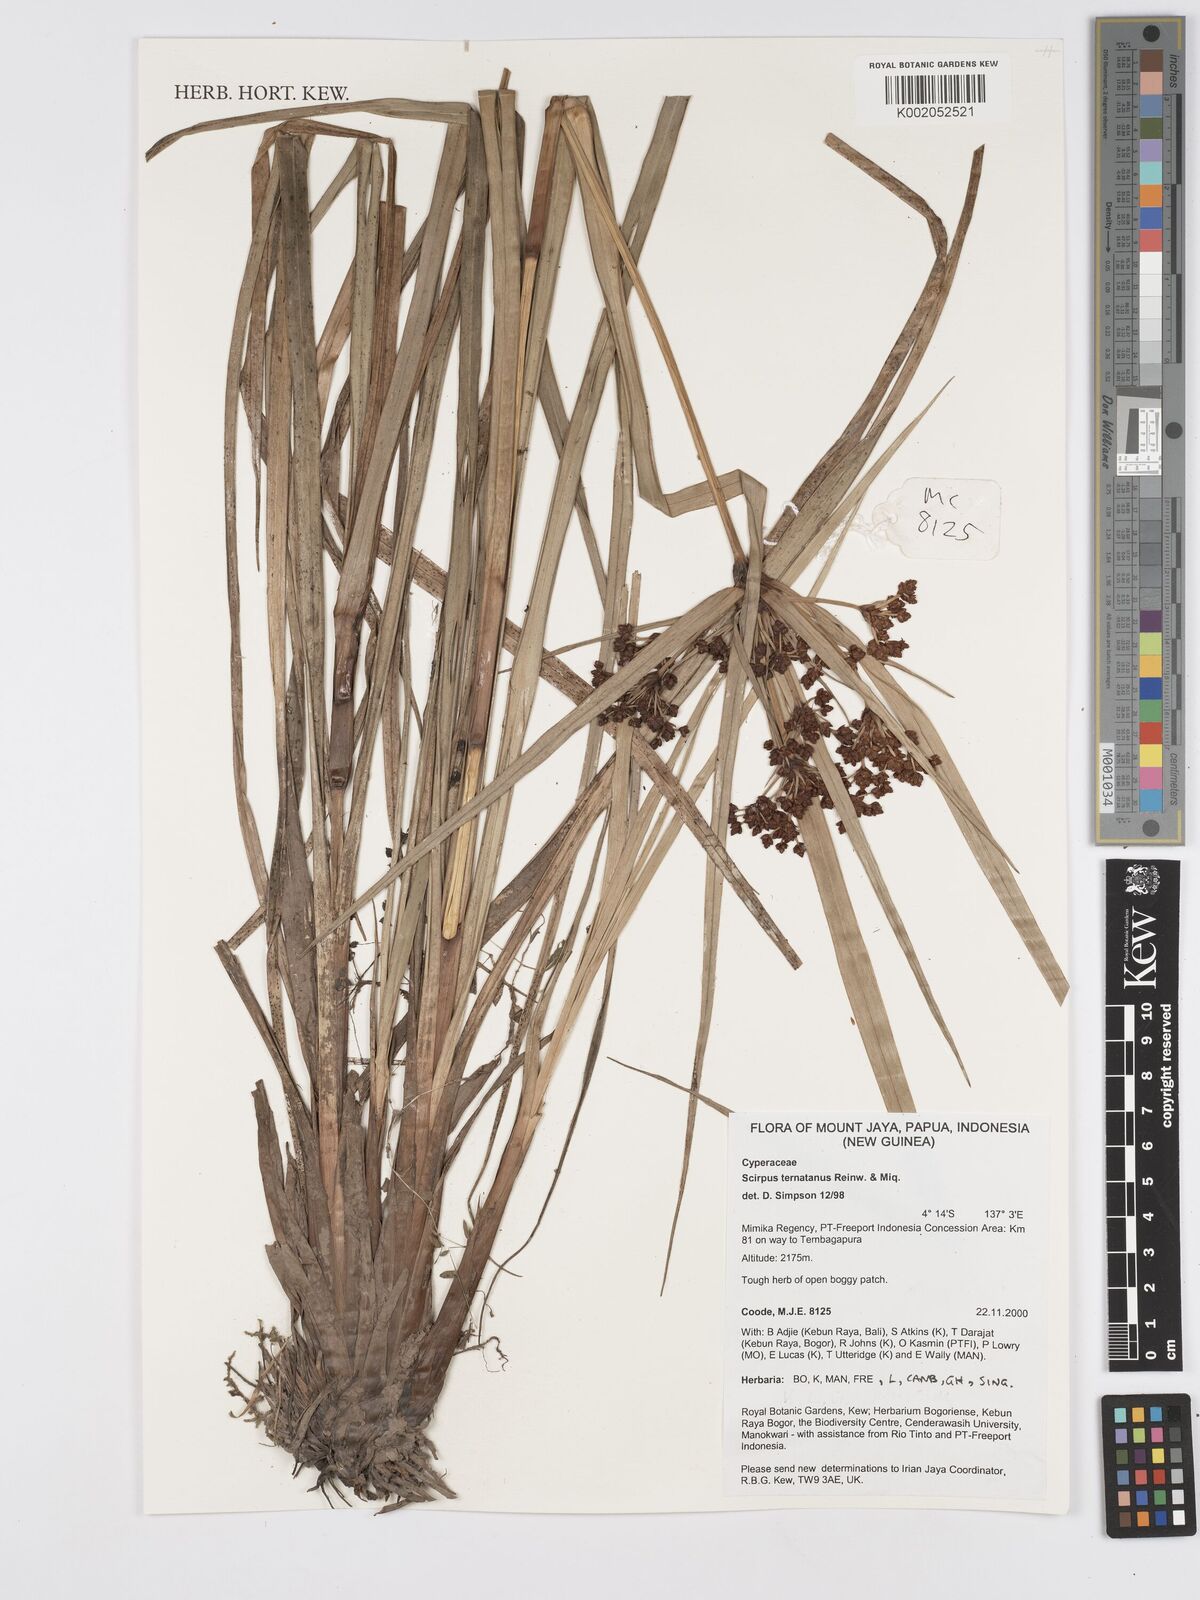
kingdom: Plantae
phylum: Tracheophyta
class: Liliopsida
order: Poales
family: Cyperaceae
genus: Scirpus
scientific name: Scirpus ternatanus
